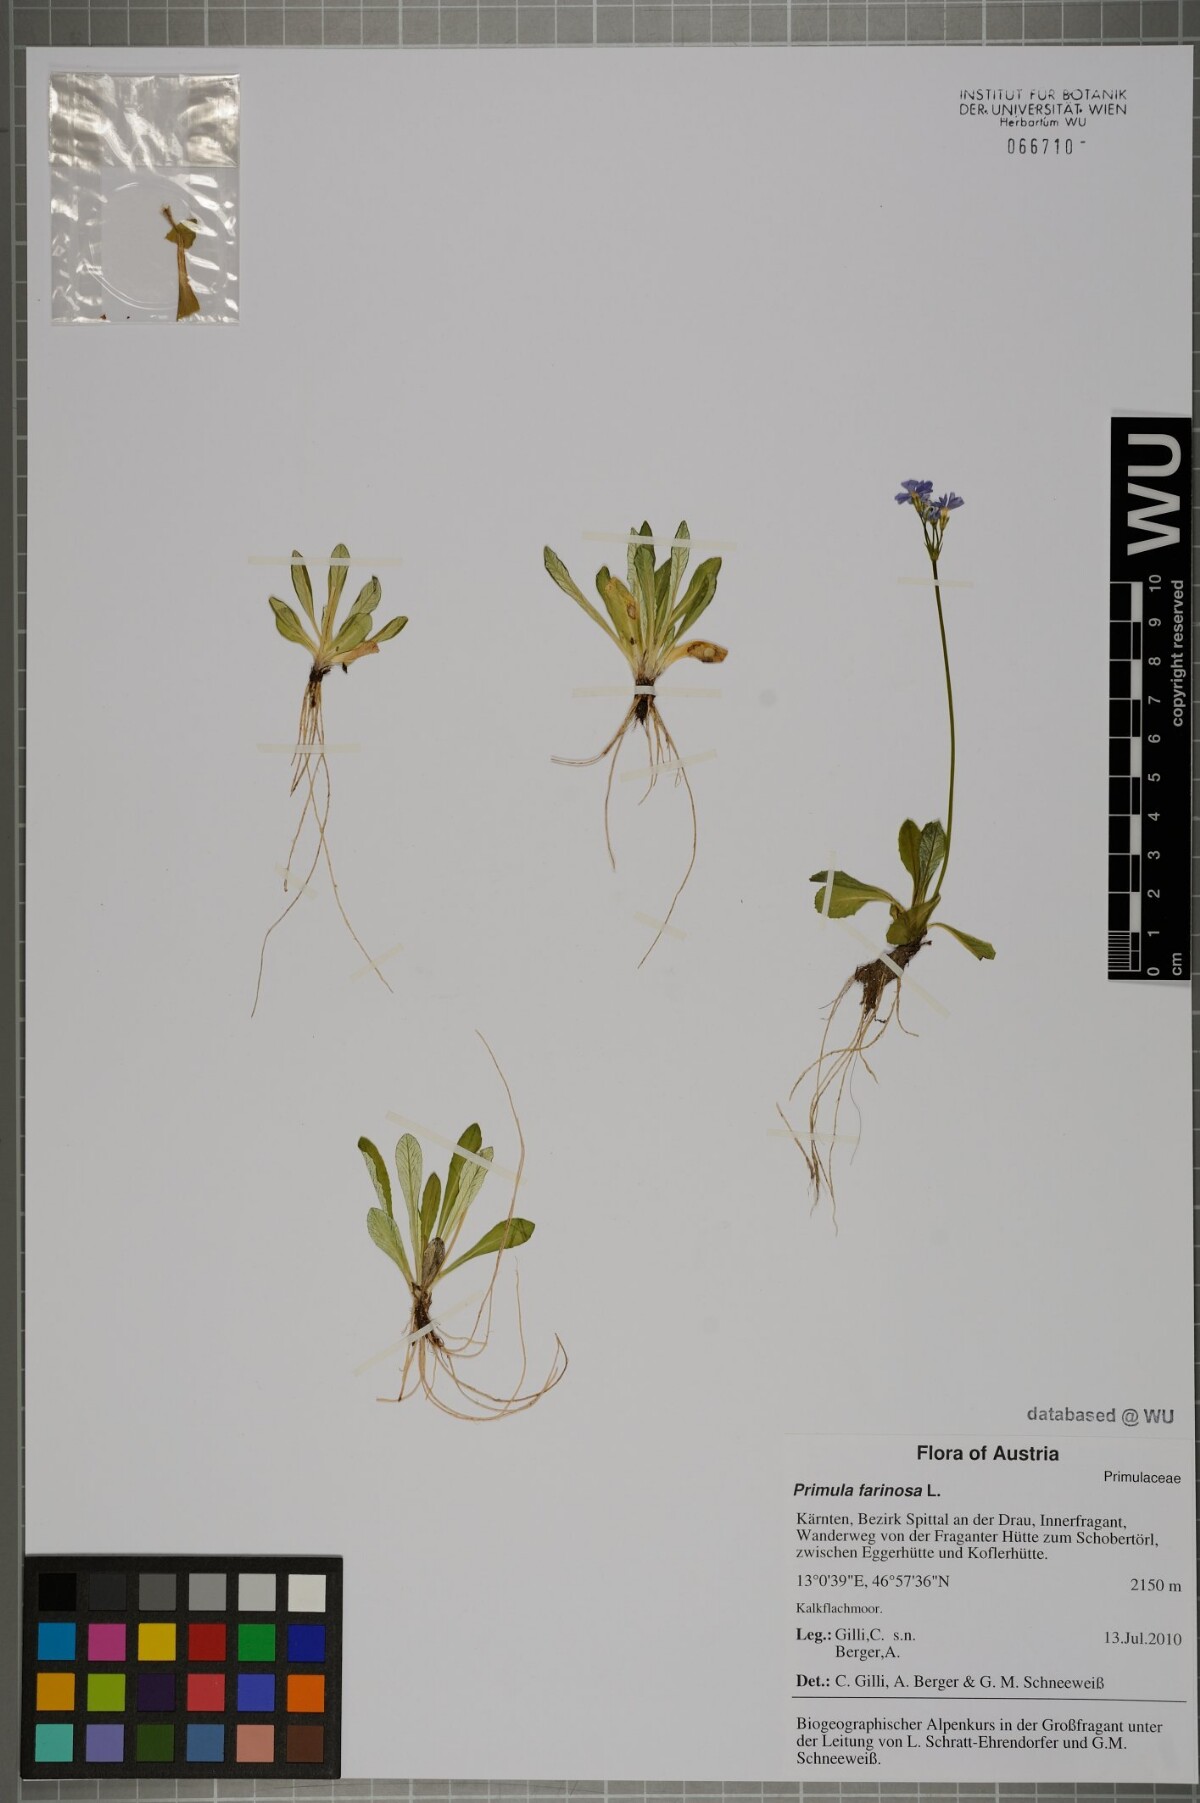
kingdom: Plantae
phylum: Tracheophyta
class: Magnoliopsida
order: Ericales
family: Primulaceae
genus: Primula
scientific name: Primula farinosa
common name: Bird's-eye primrose
